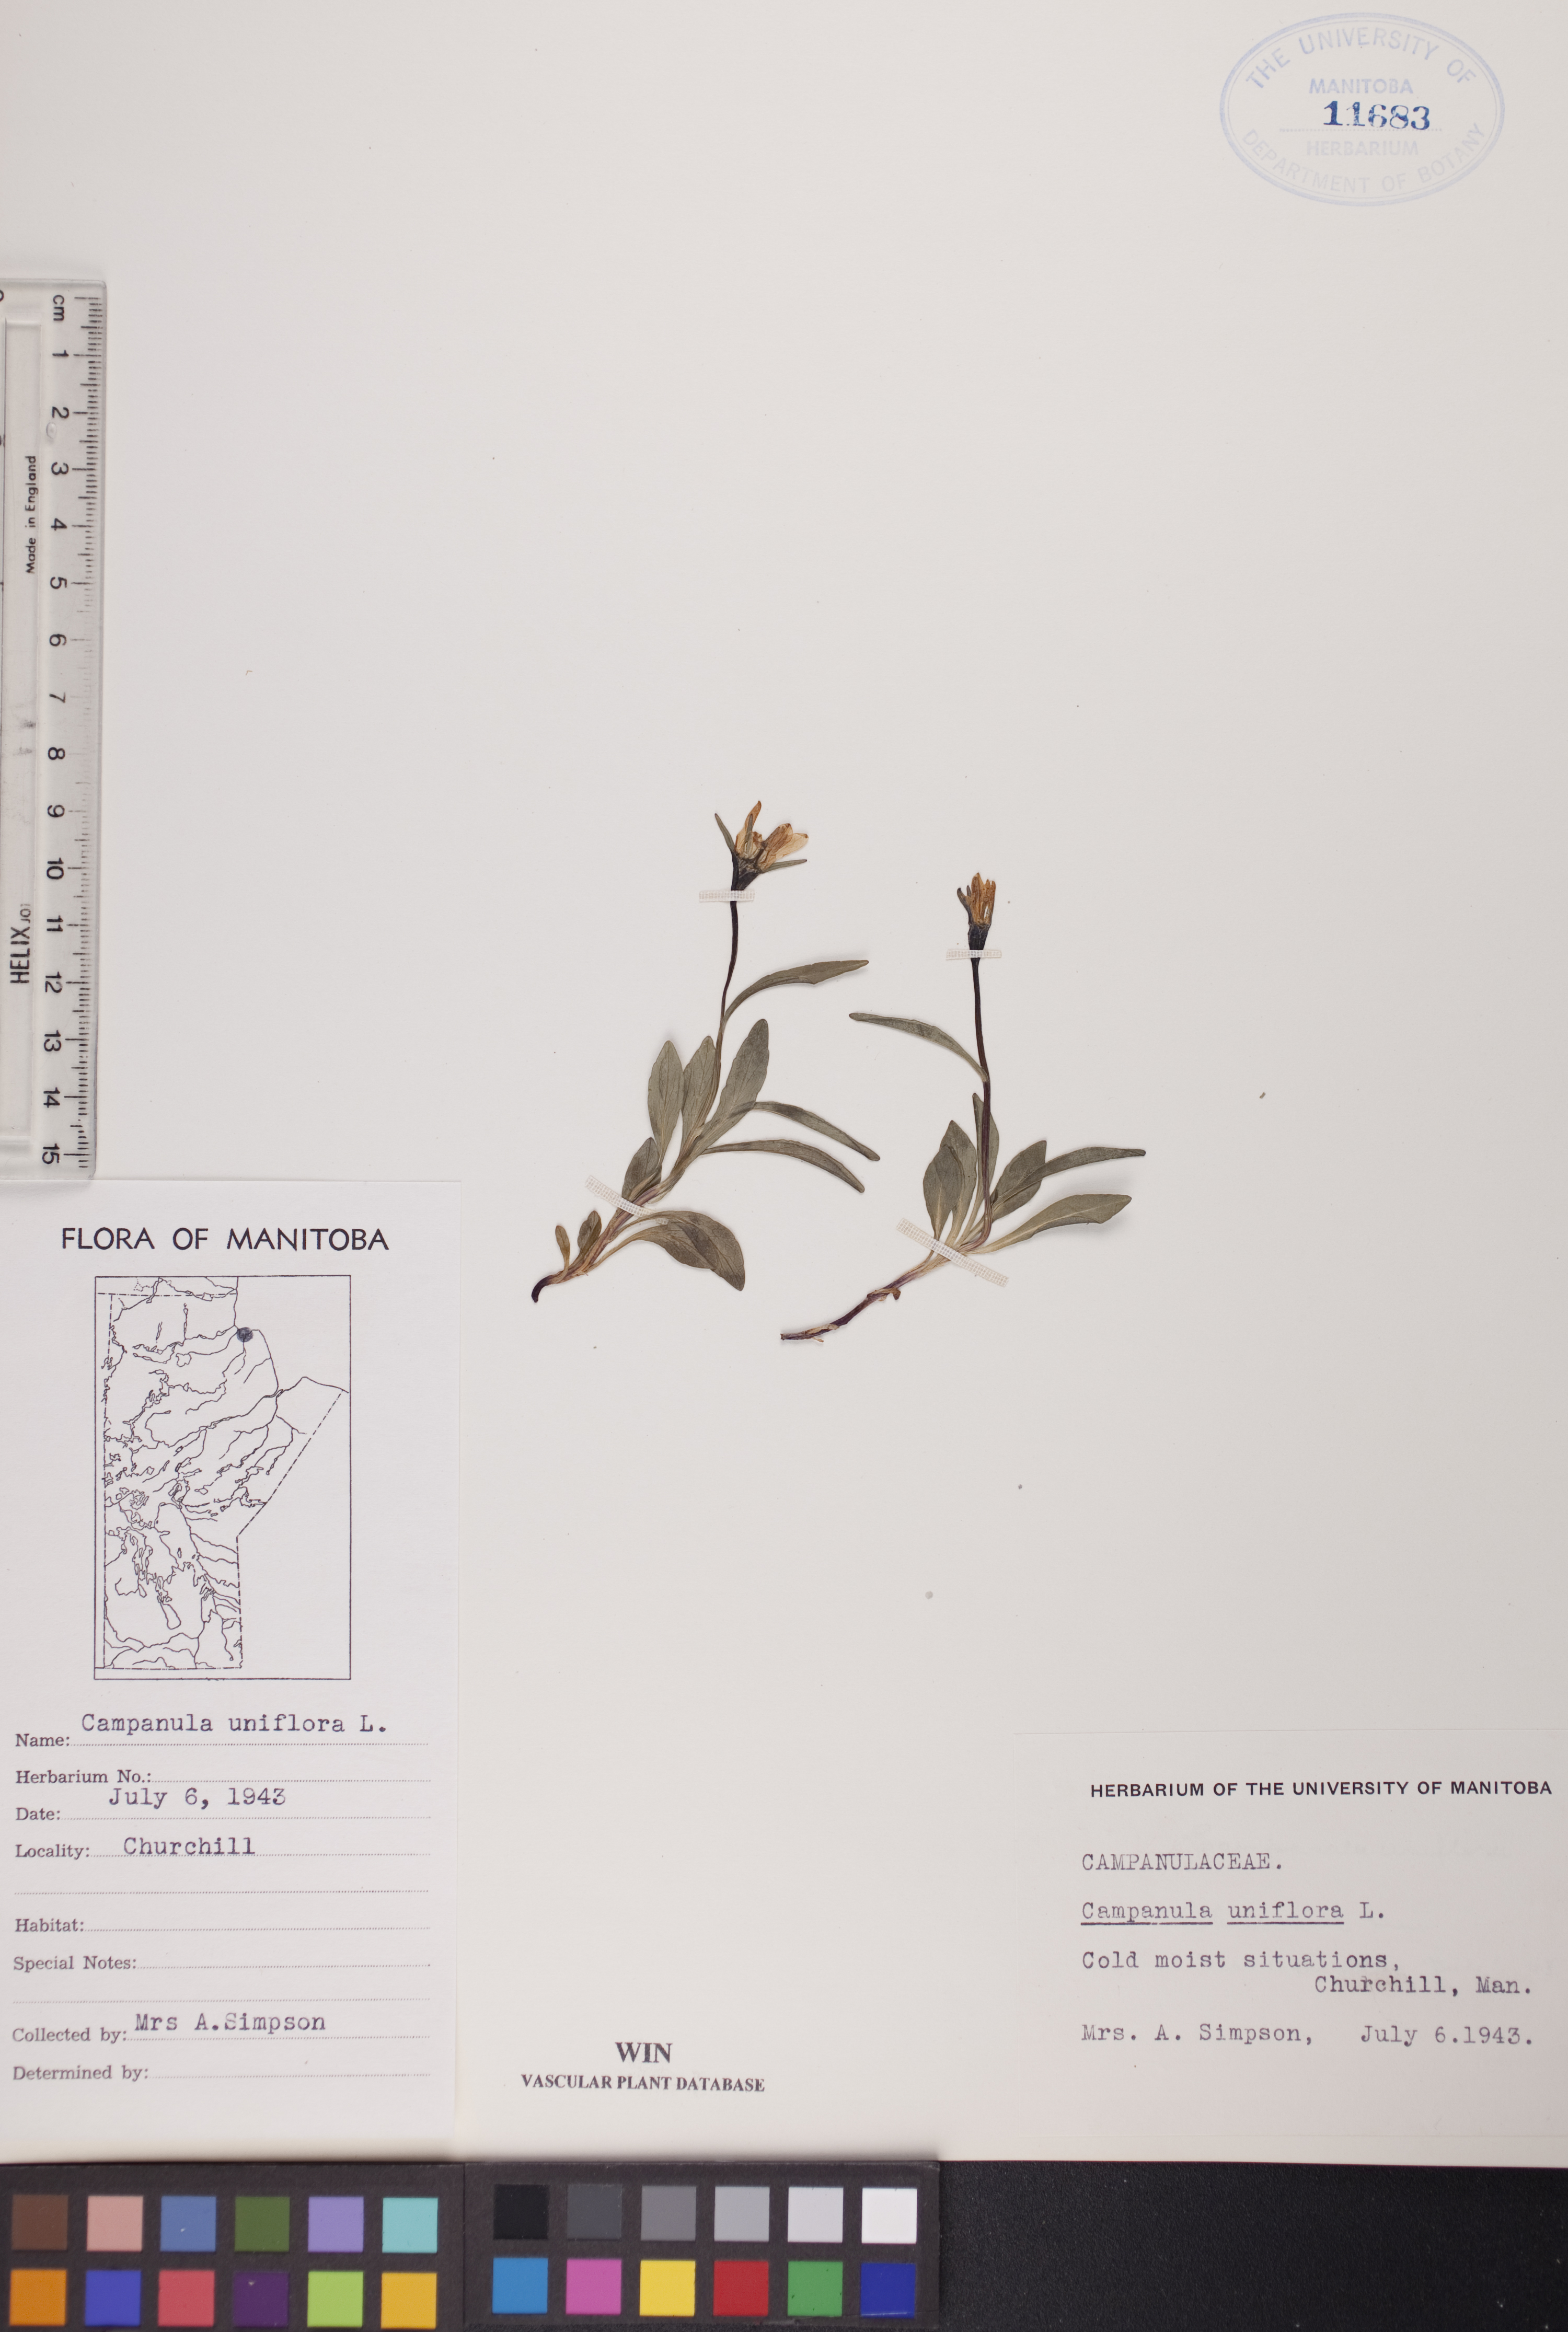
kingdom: Plantae
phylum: Tracheophyta
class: Magnoliopsida
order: Asterales
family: Campanulaceae
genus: Melanocalyx
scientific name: Melanocalyx uniflora
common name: Alpine harebell
